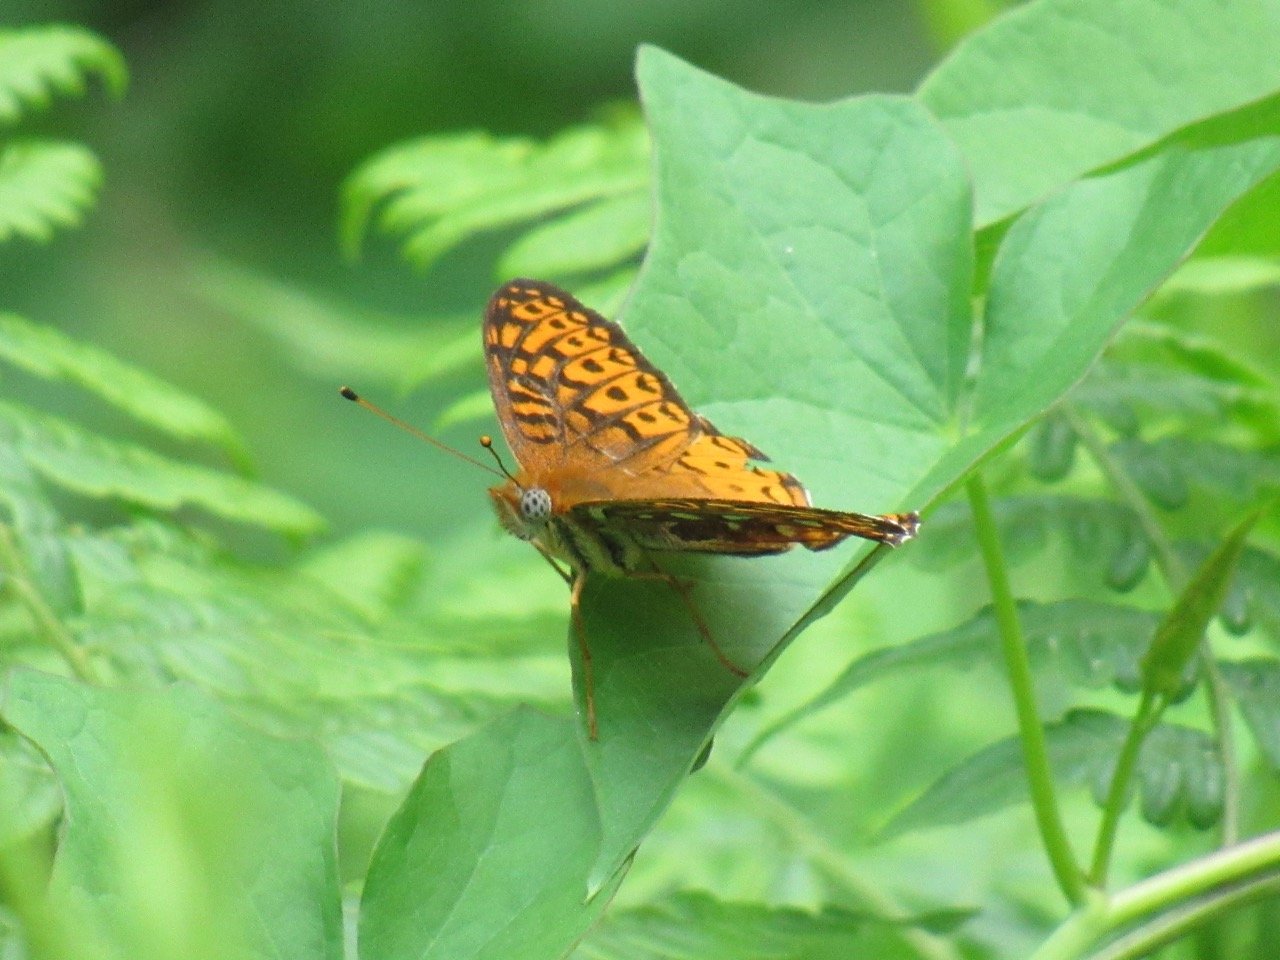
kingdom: Animalia
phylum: Arthropoda
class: Insecta
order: Lepidoptera
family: Nymphalidae
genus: Speyeria
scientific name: Speyeria atlantis
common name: Atlantis Fritillary
